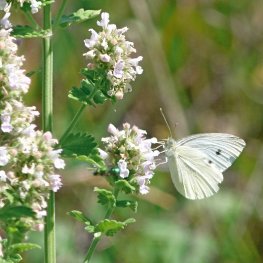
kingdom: Animalia
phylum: Arthropoda
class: Insecta
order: Lepidoptera
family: Pieridae
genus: Pieris
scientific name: Pieris rapae
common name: Cabbage White
